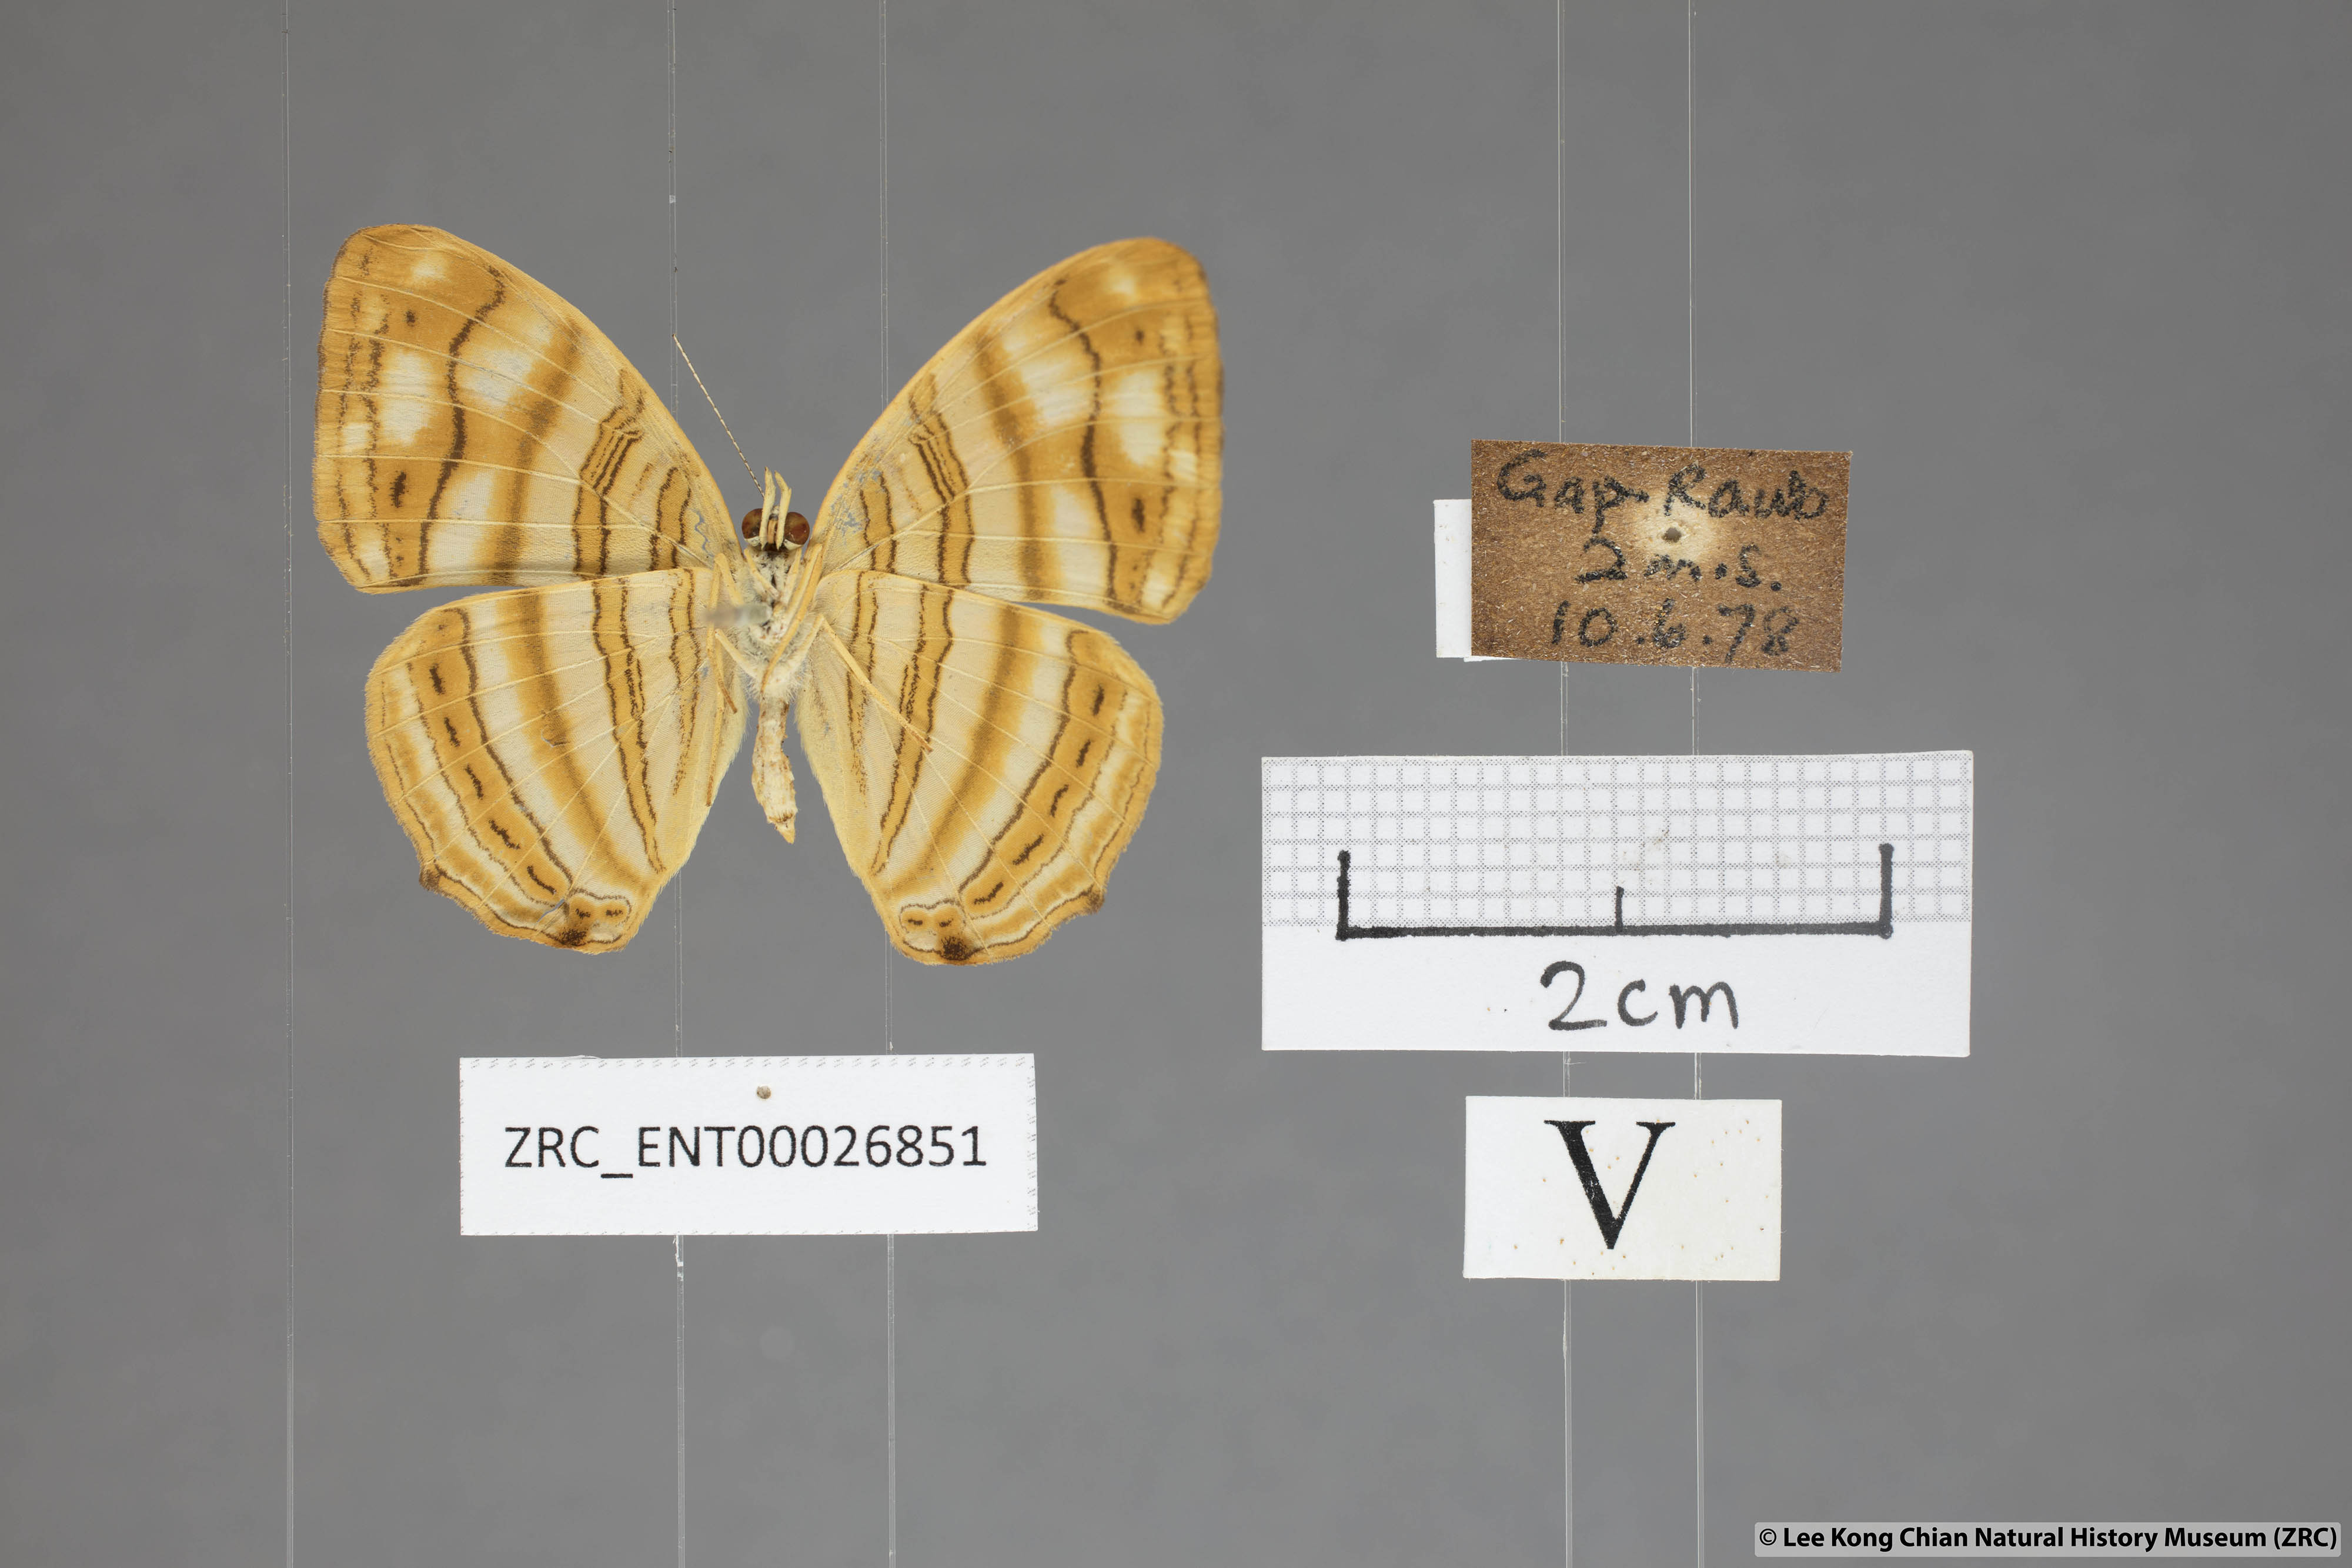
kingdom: Animalia
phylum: Arthropoda
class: Insecta
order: Lepidoptera
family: Nymphalidae
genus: Chersonesia
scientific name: Chersonesia rahria
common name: Wavy maplet
